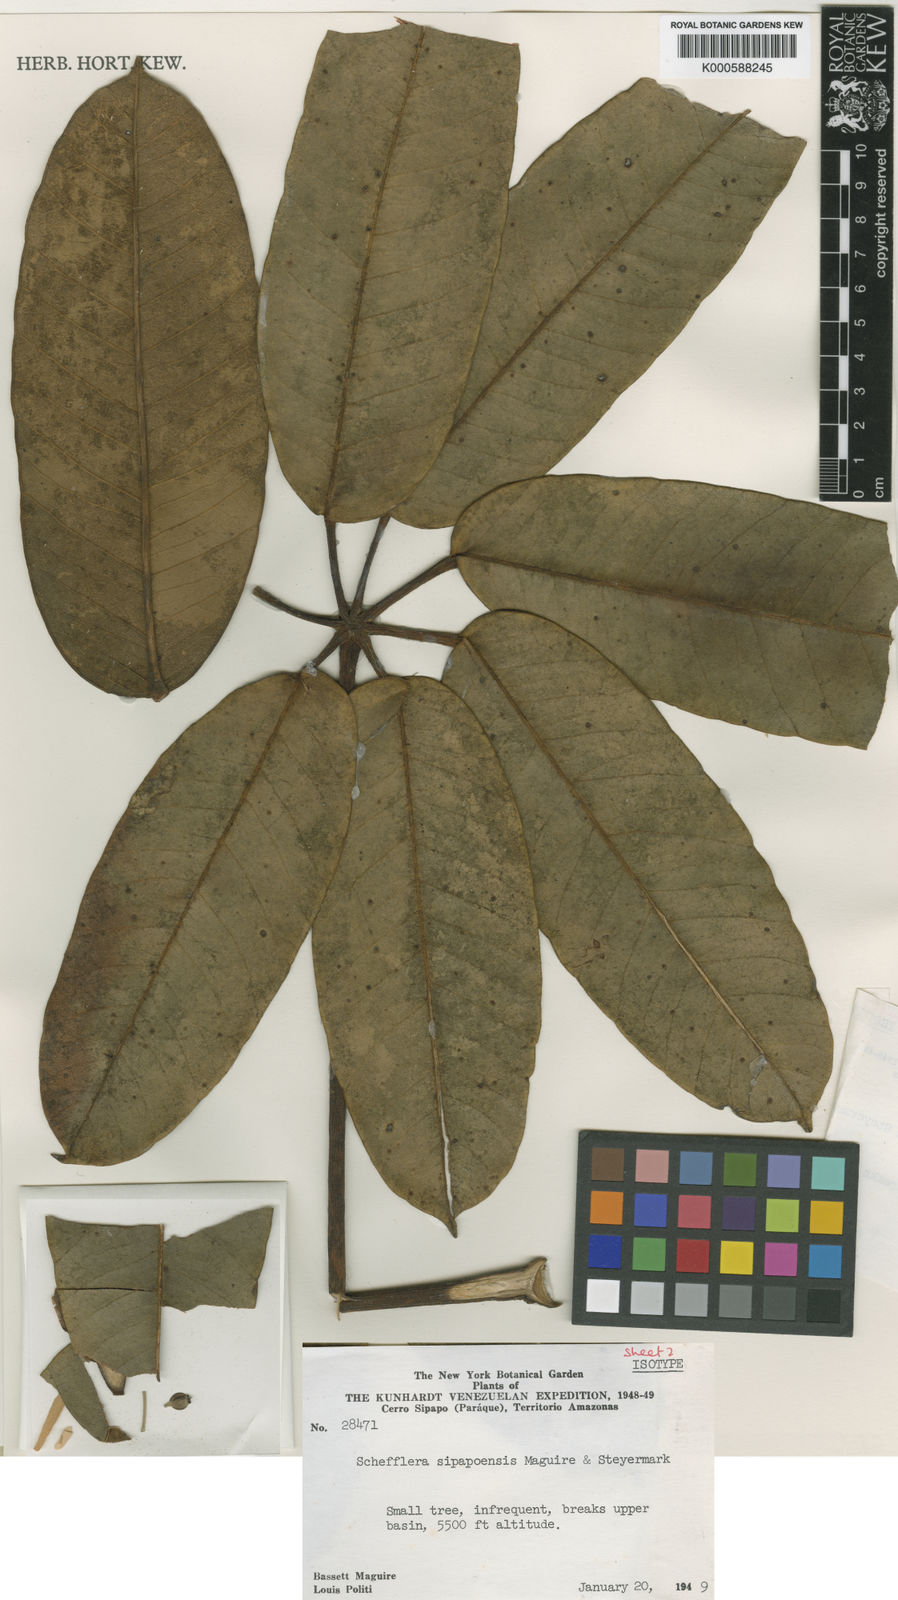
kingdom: Plantae
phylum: Tracheophyta
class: Magnoliopsida
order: Apiales
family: Araliaceae
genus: Sciodaphyllum
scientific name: Sciodaphyllum sipapoense
